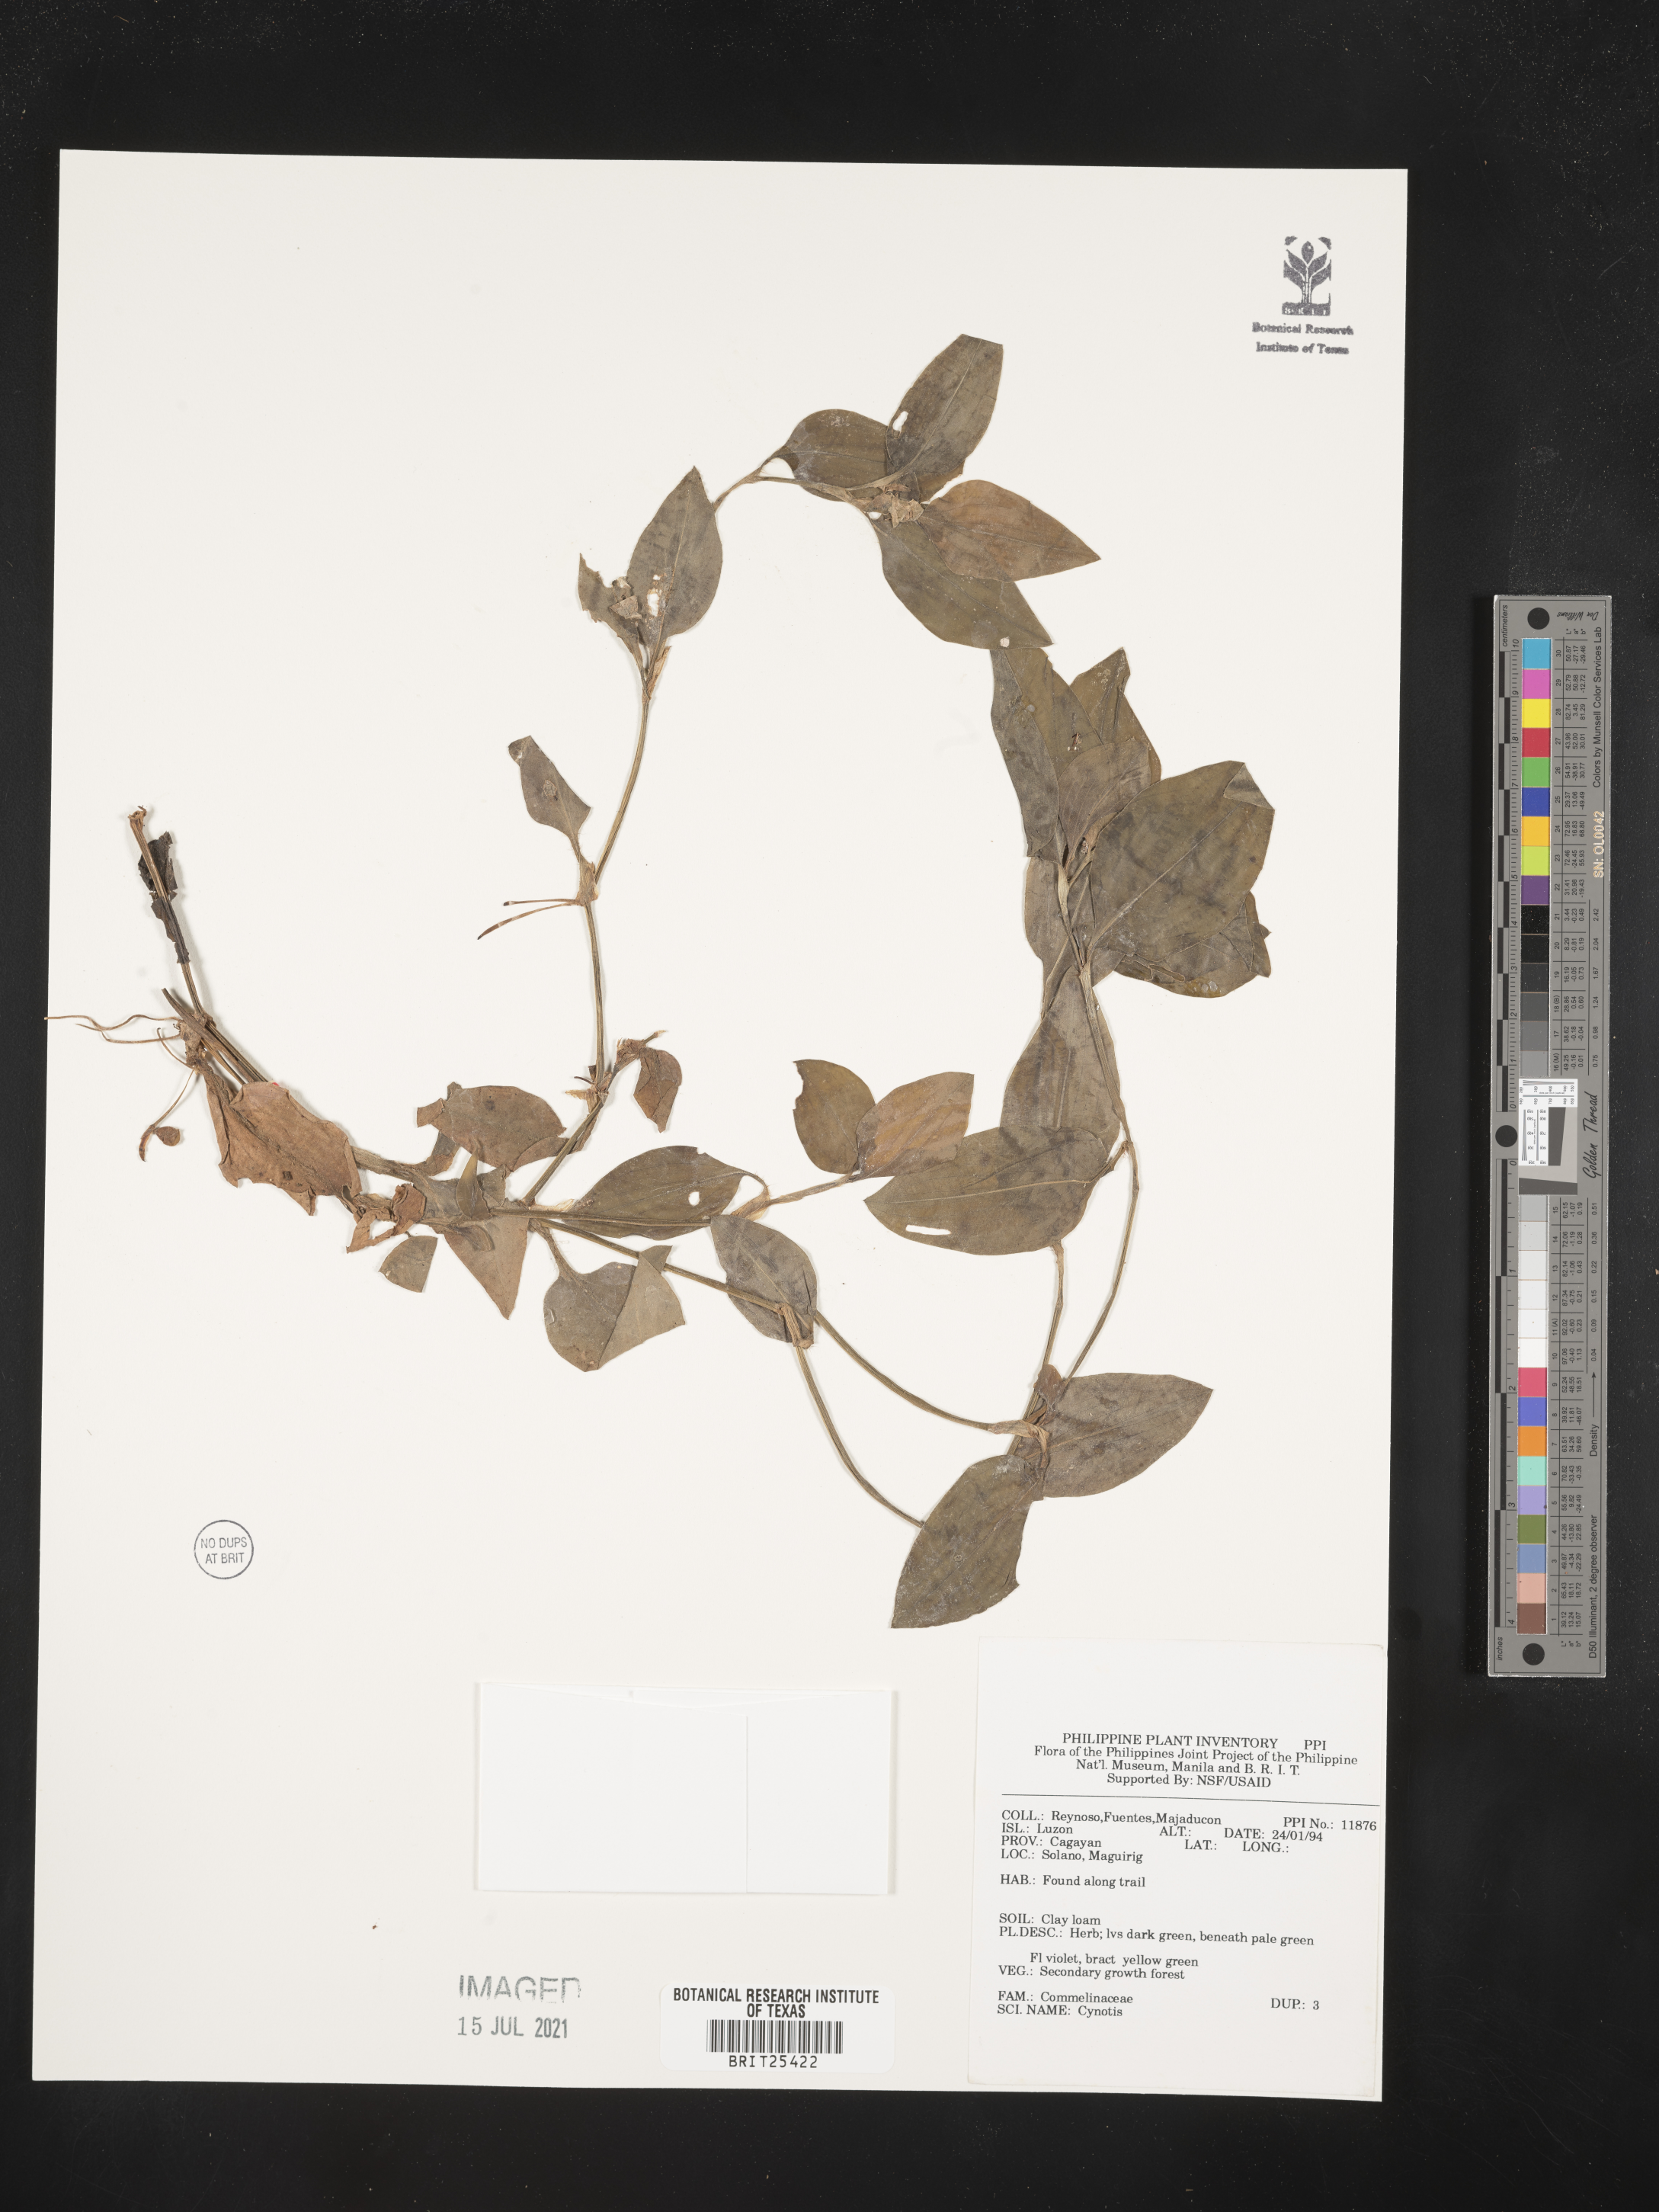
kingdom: Plantae
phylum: Tracheophyta
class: Liliopsida
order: Commelinales
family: Commelinaceae
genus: Cyanotis
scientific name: Cyanotis
